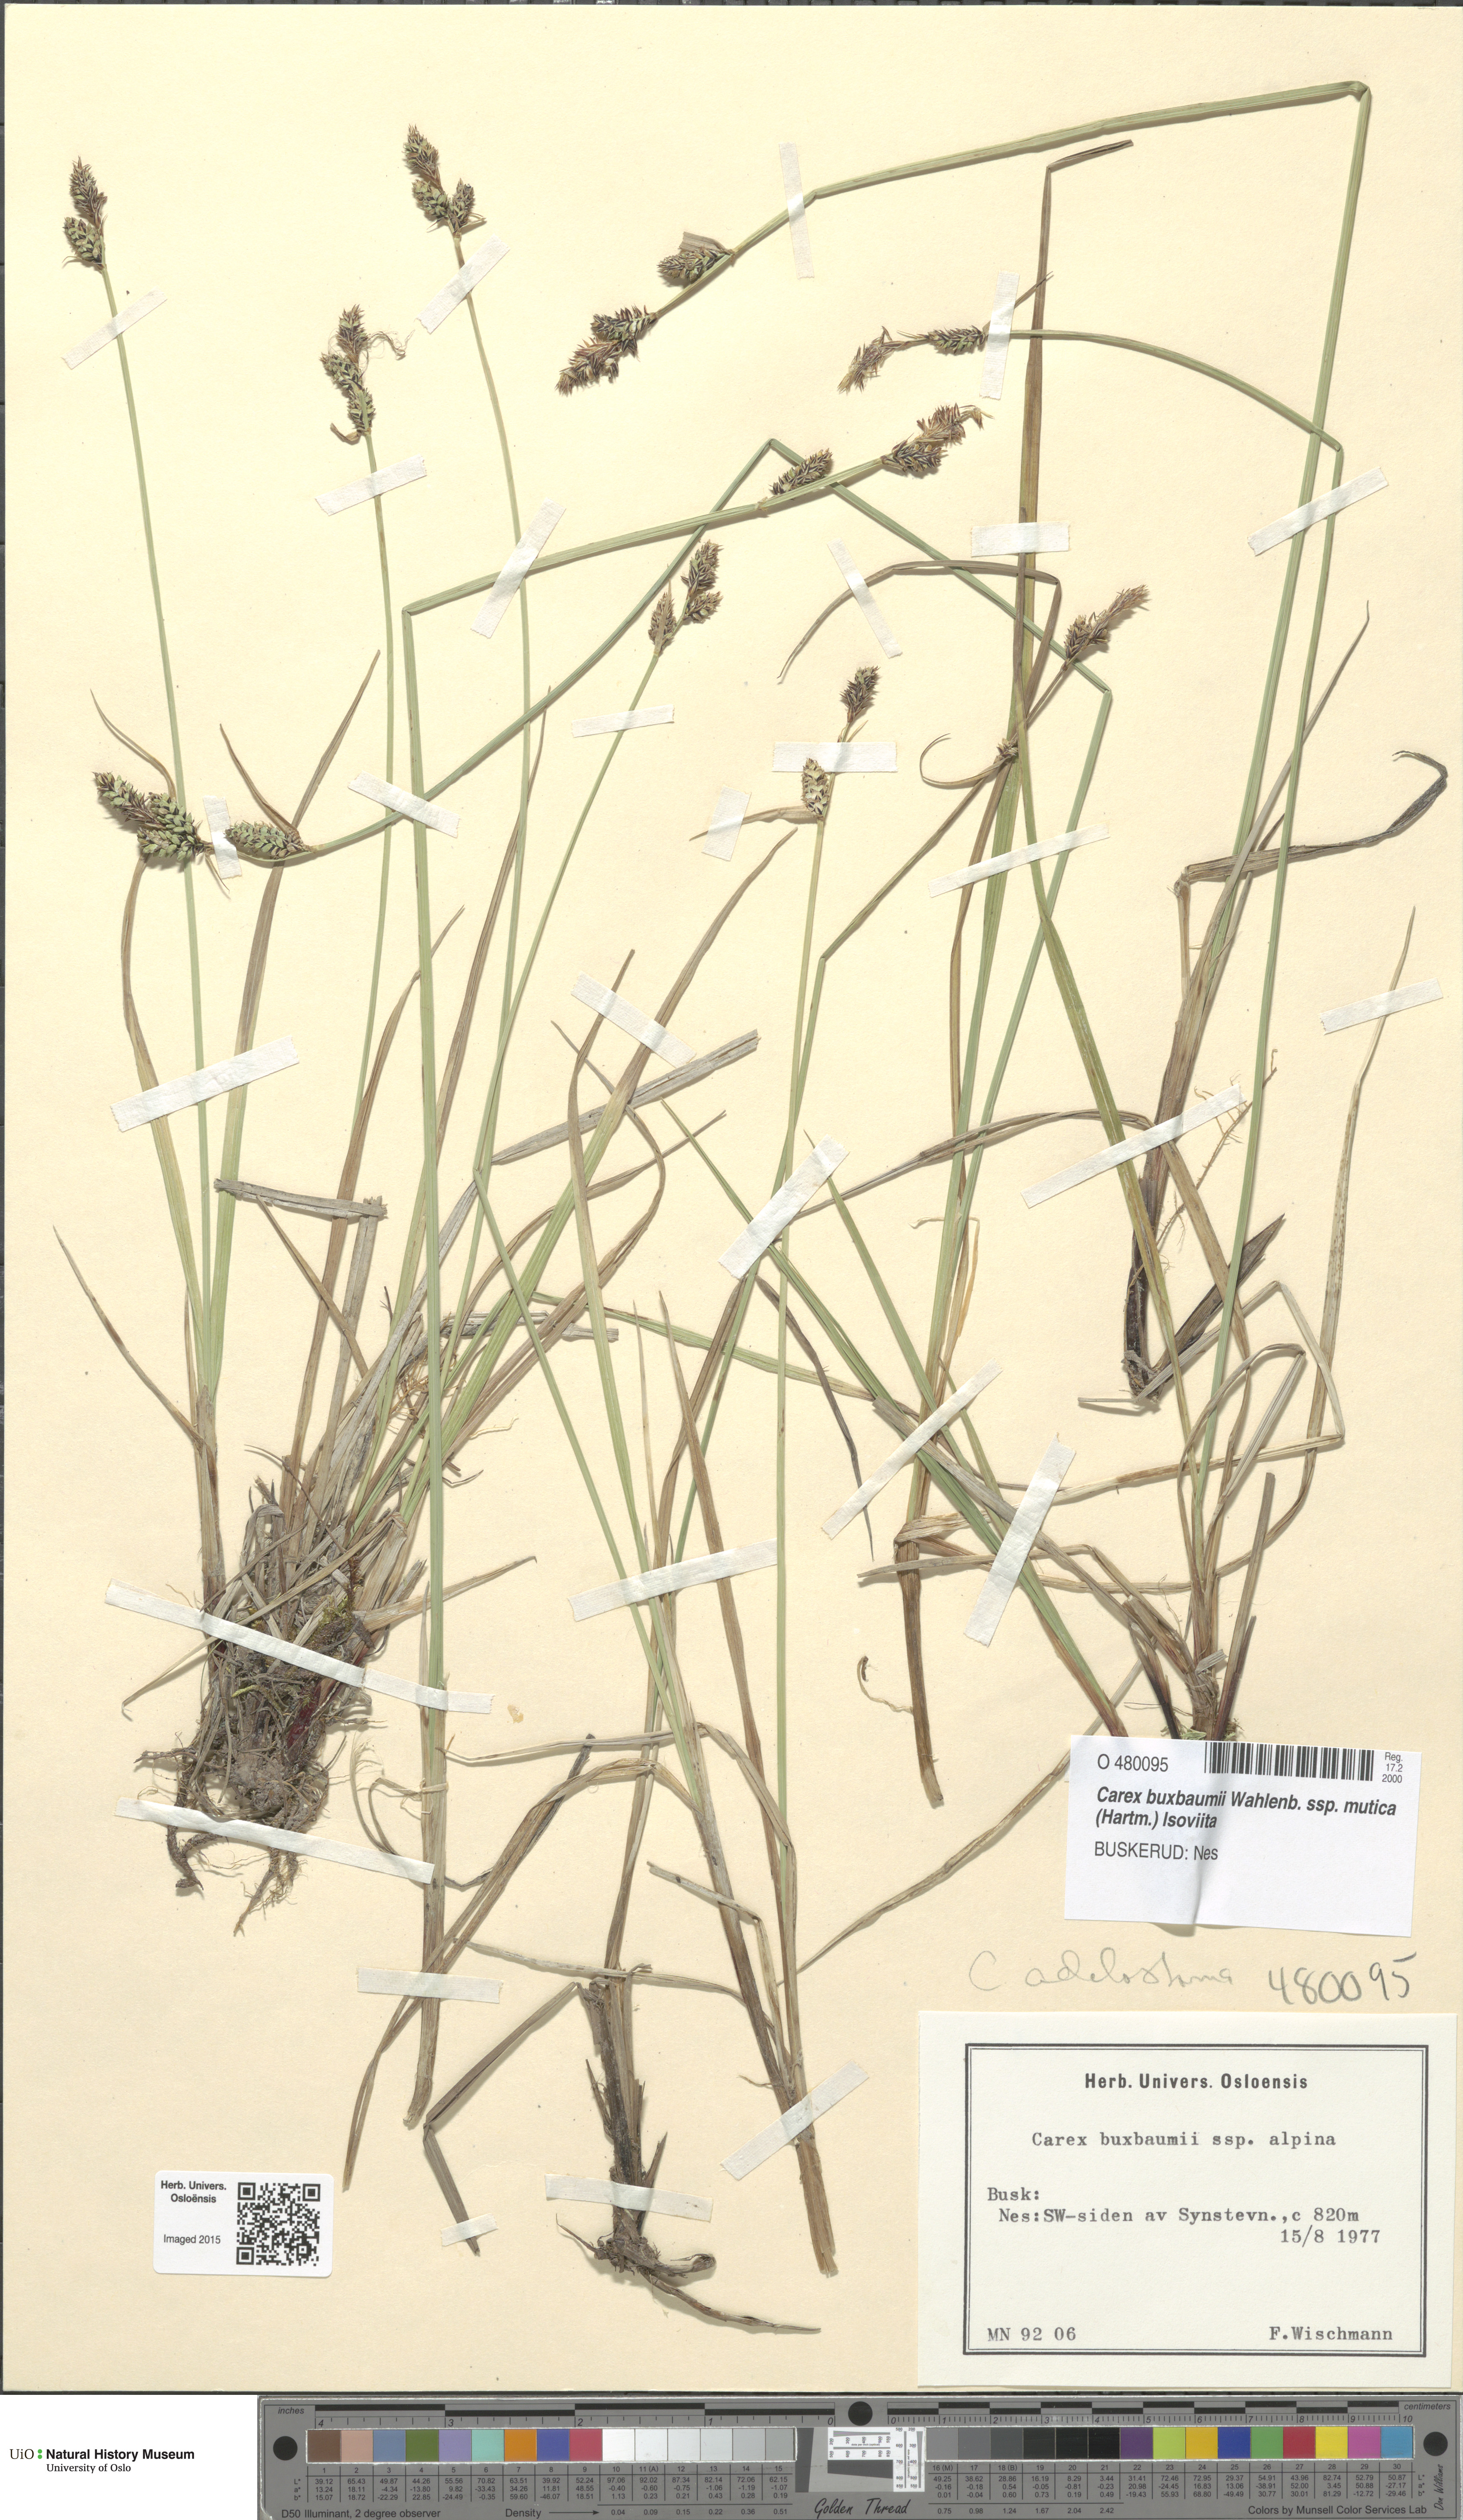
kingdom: Plantae
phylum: Tracheophyta
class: Liliopsida
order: Poales
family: Cyperaceae
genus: Carex
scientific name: Carex adelostoma
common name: Circumpolar sedge
